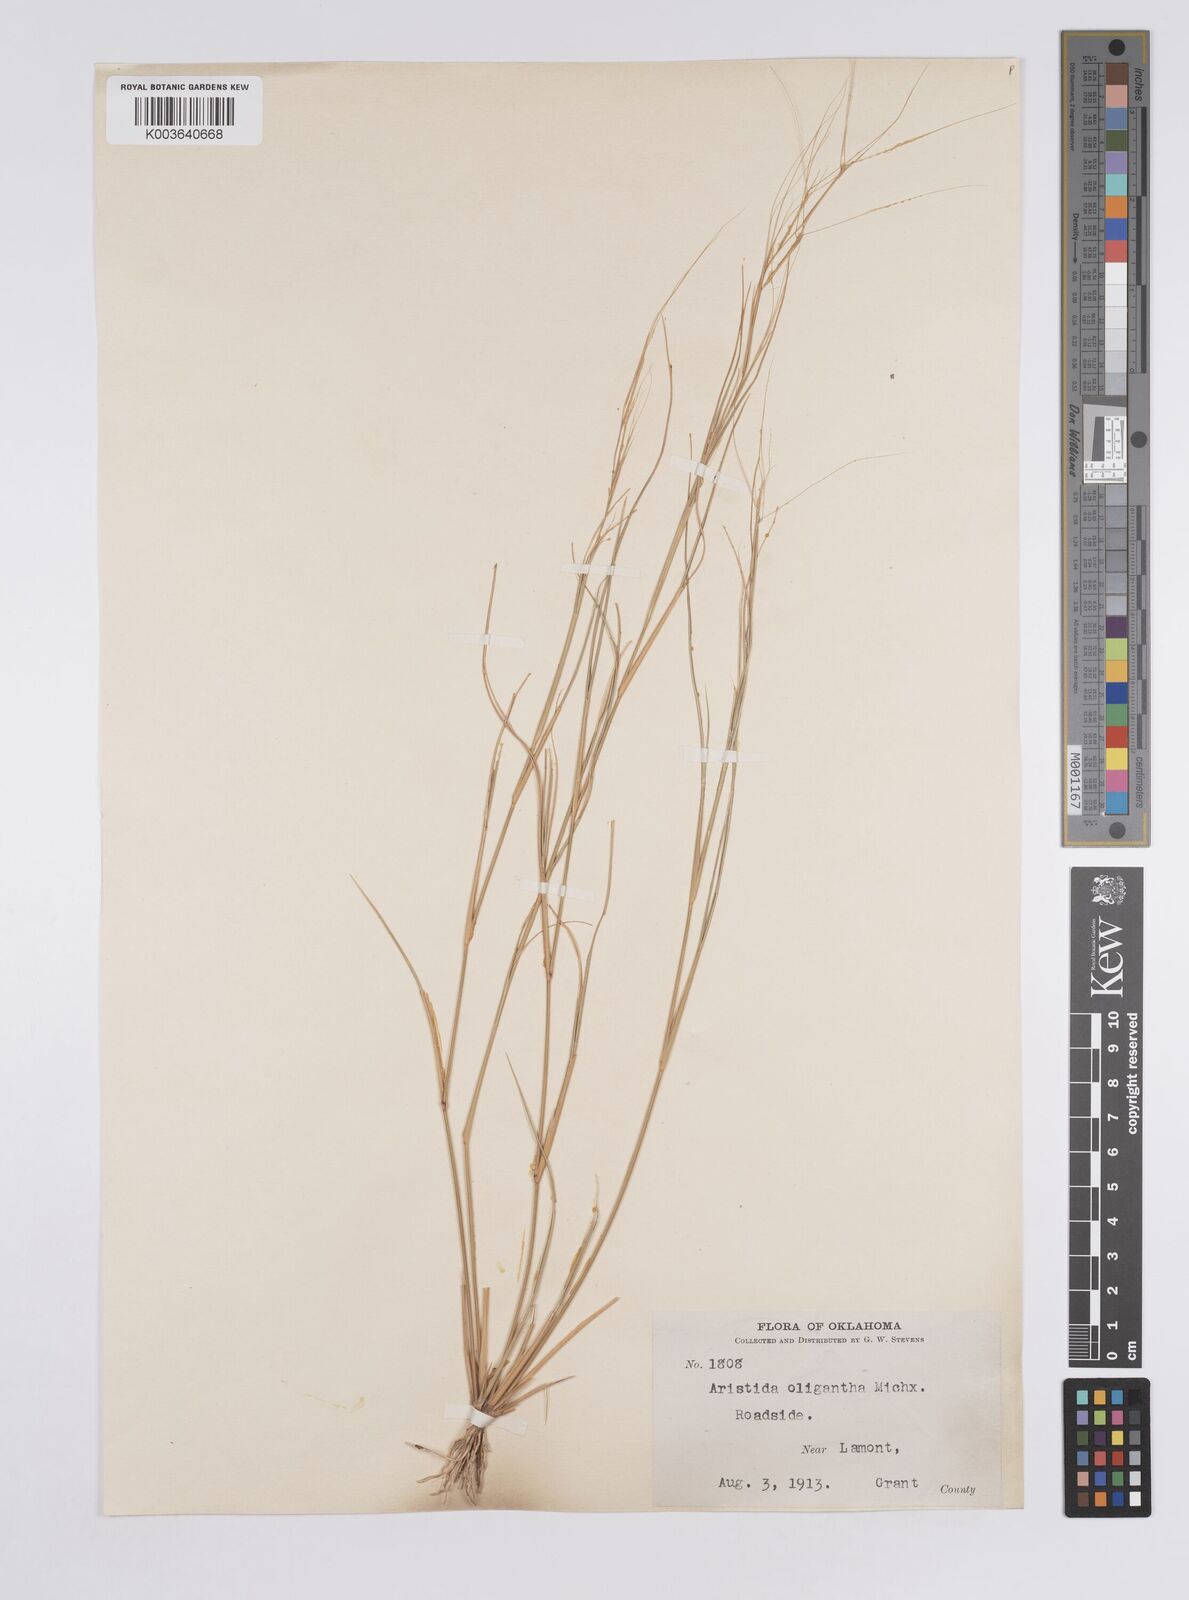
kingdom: Plantae
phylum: Tracheophyta
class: Liliopsida
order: Poales
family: Poaceae
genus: Aristida
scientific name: Aristida oligantha
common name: Few-flowered aristida
